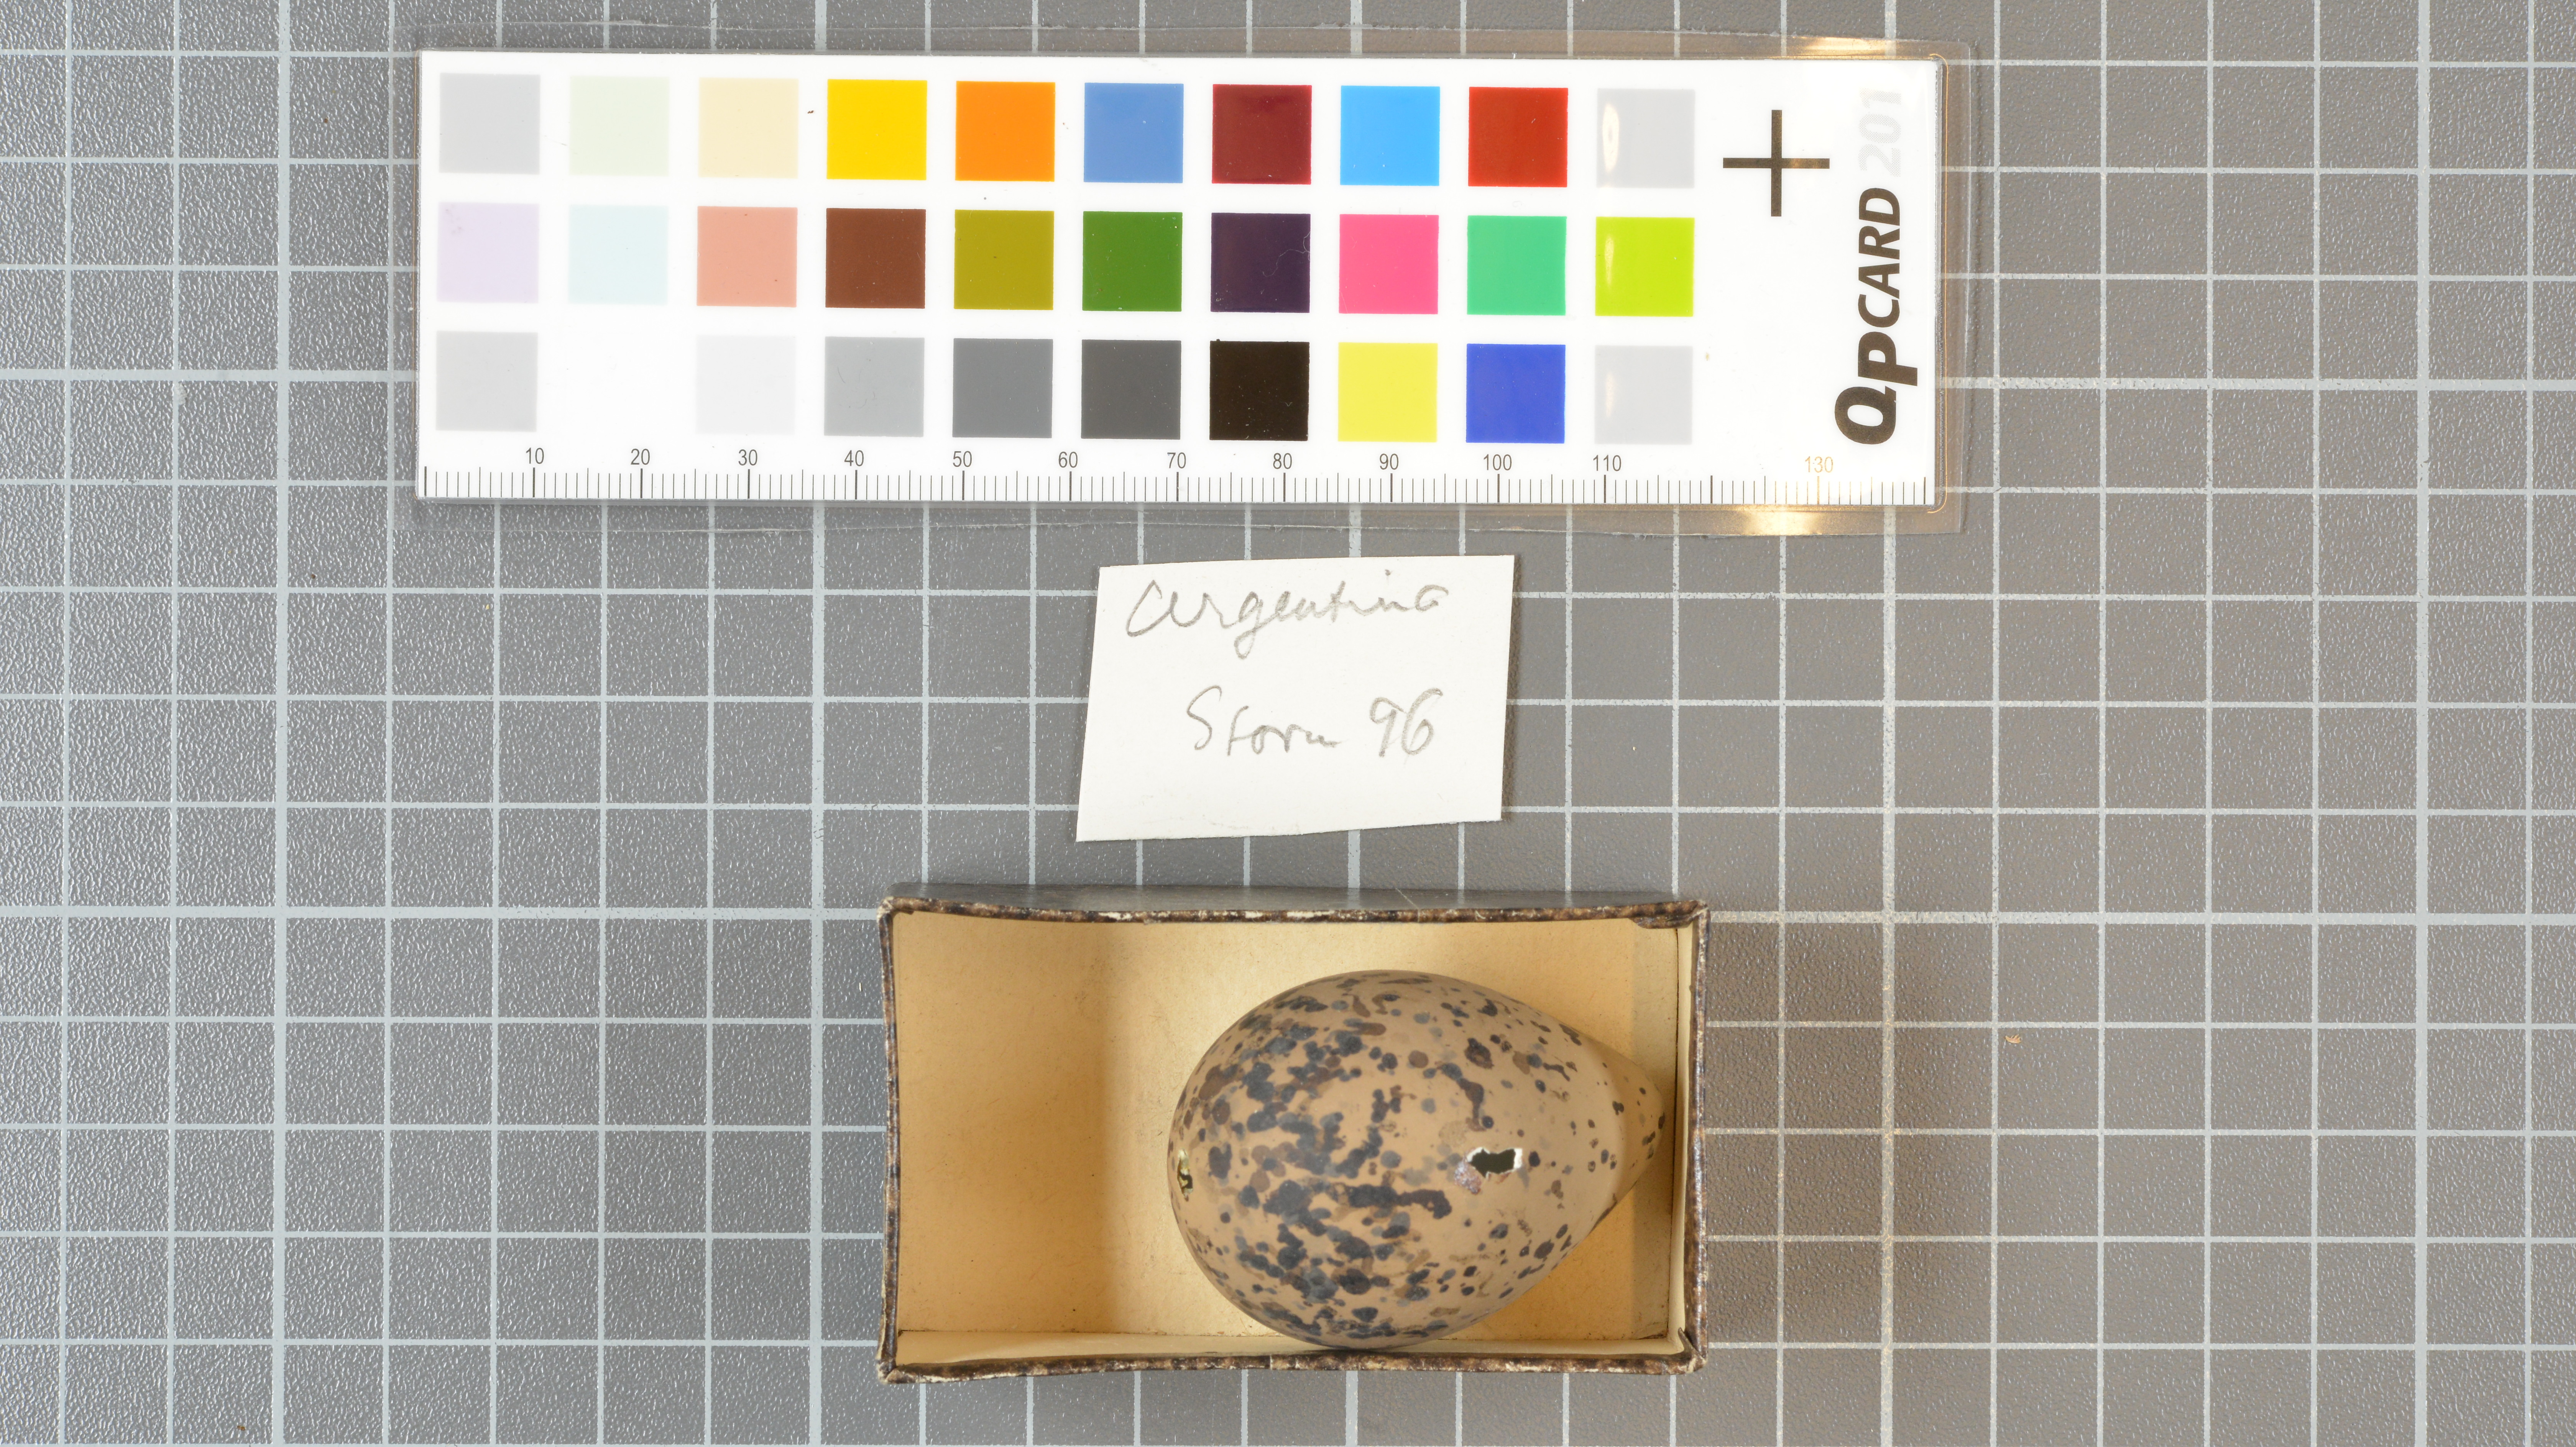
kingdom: Animalia
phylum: Chordata
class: Aves
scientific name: Aves
